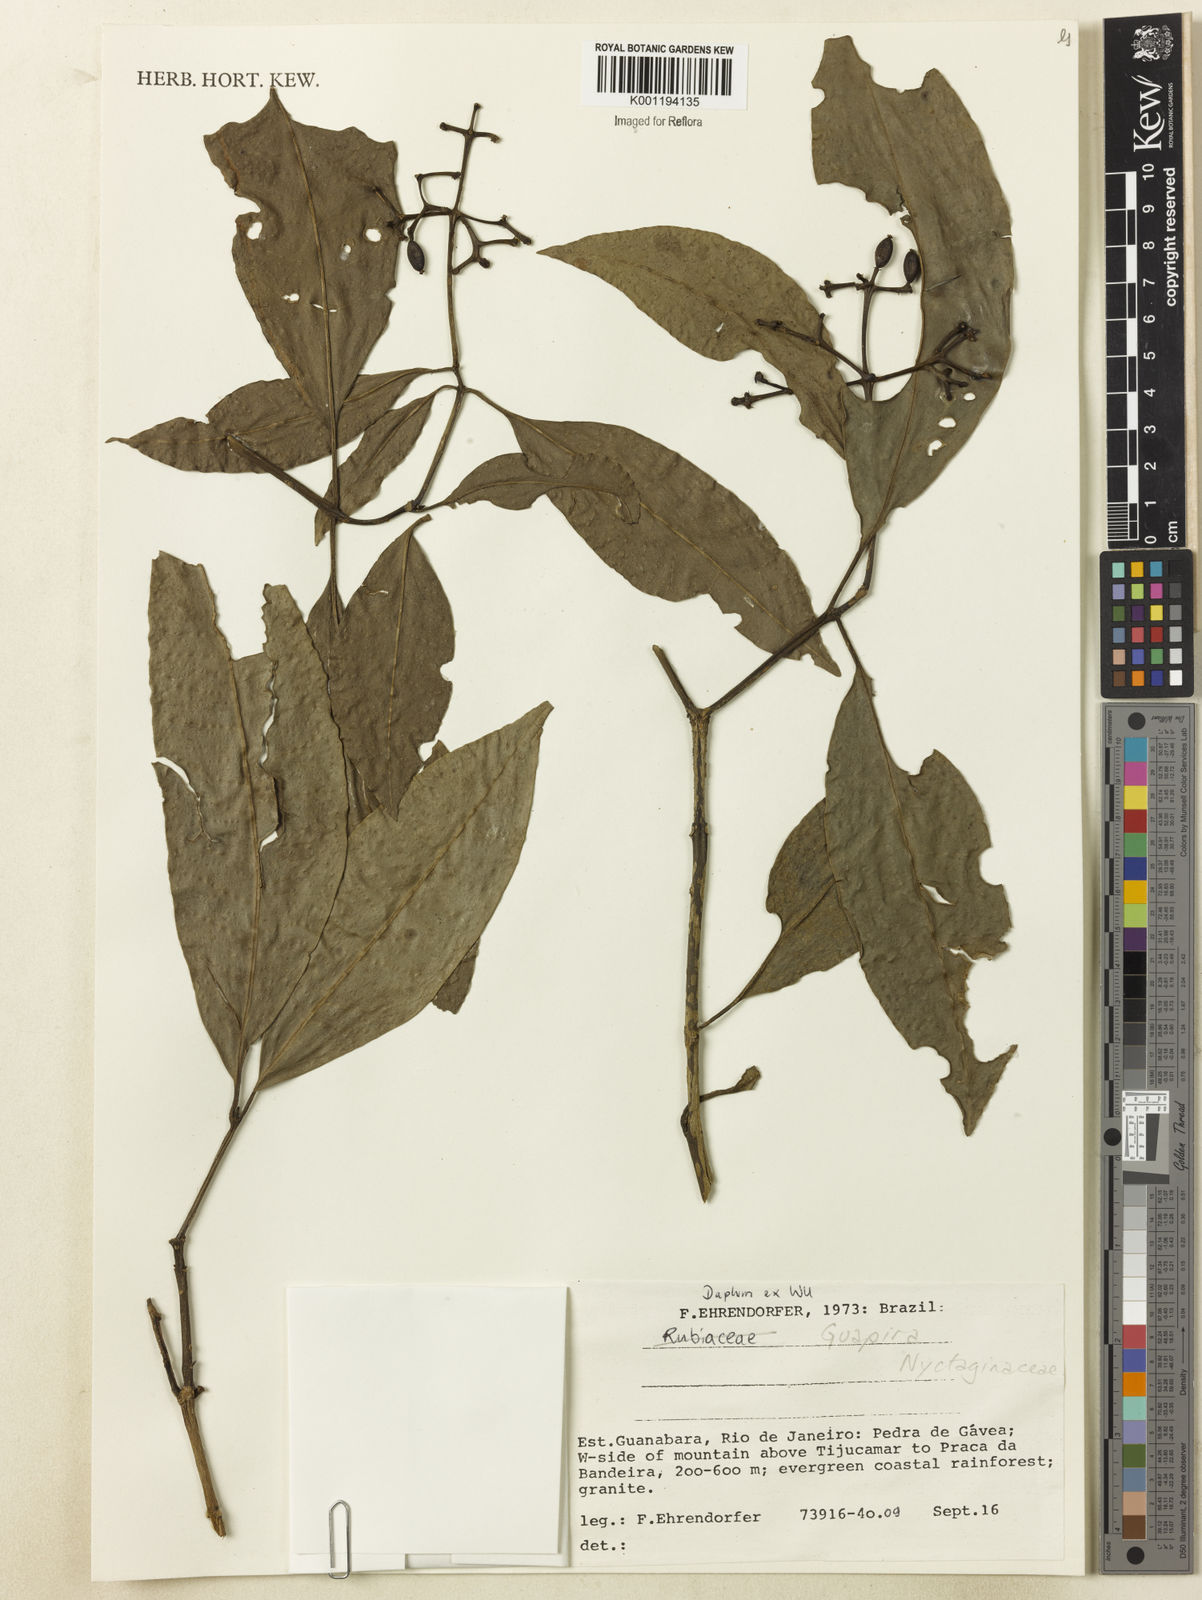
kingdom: Plantae
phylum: Tracheophyta
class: Magnoliopsida
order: Caryophyllales
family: Nyctaginaceae
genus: Guapira
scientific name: Guapira
